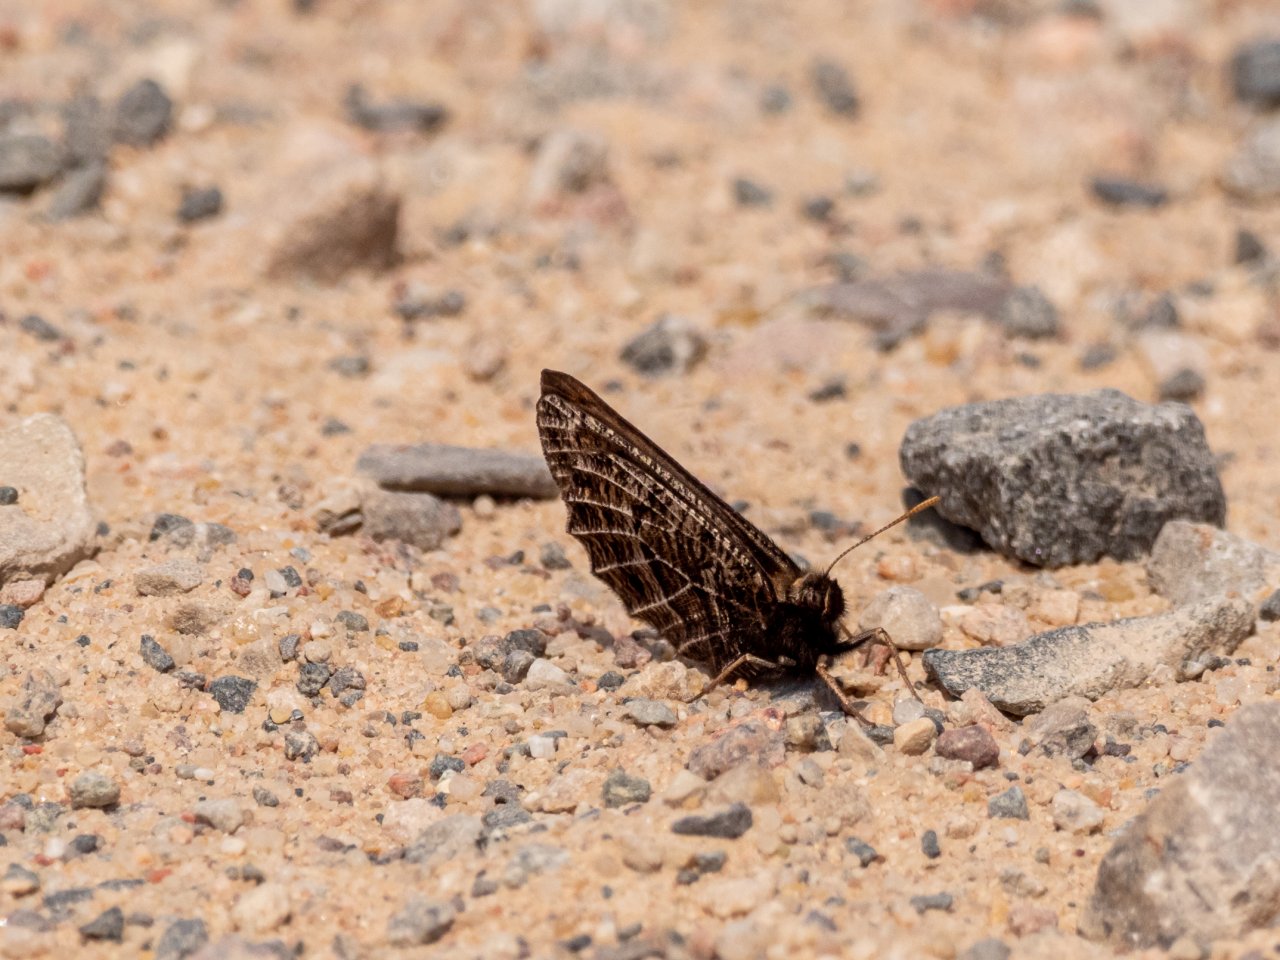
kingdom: Animalia
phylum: Arthropoda
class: Insecta
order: Lepidoptera
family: Nymphalidae
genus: Oeneis
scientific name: Oeneis chryxus
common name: Chryxus Arctic
